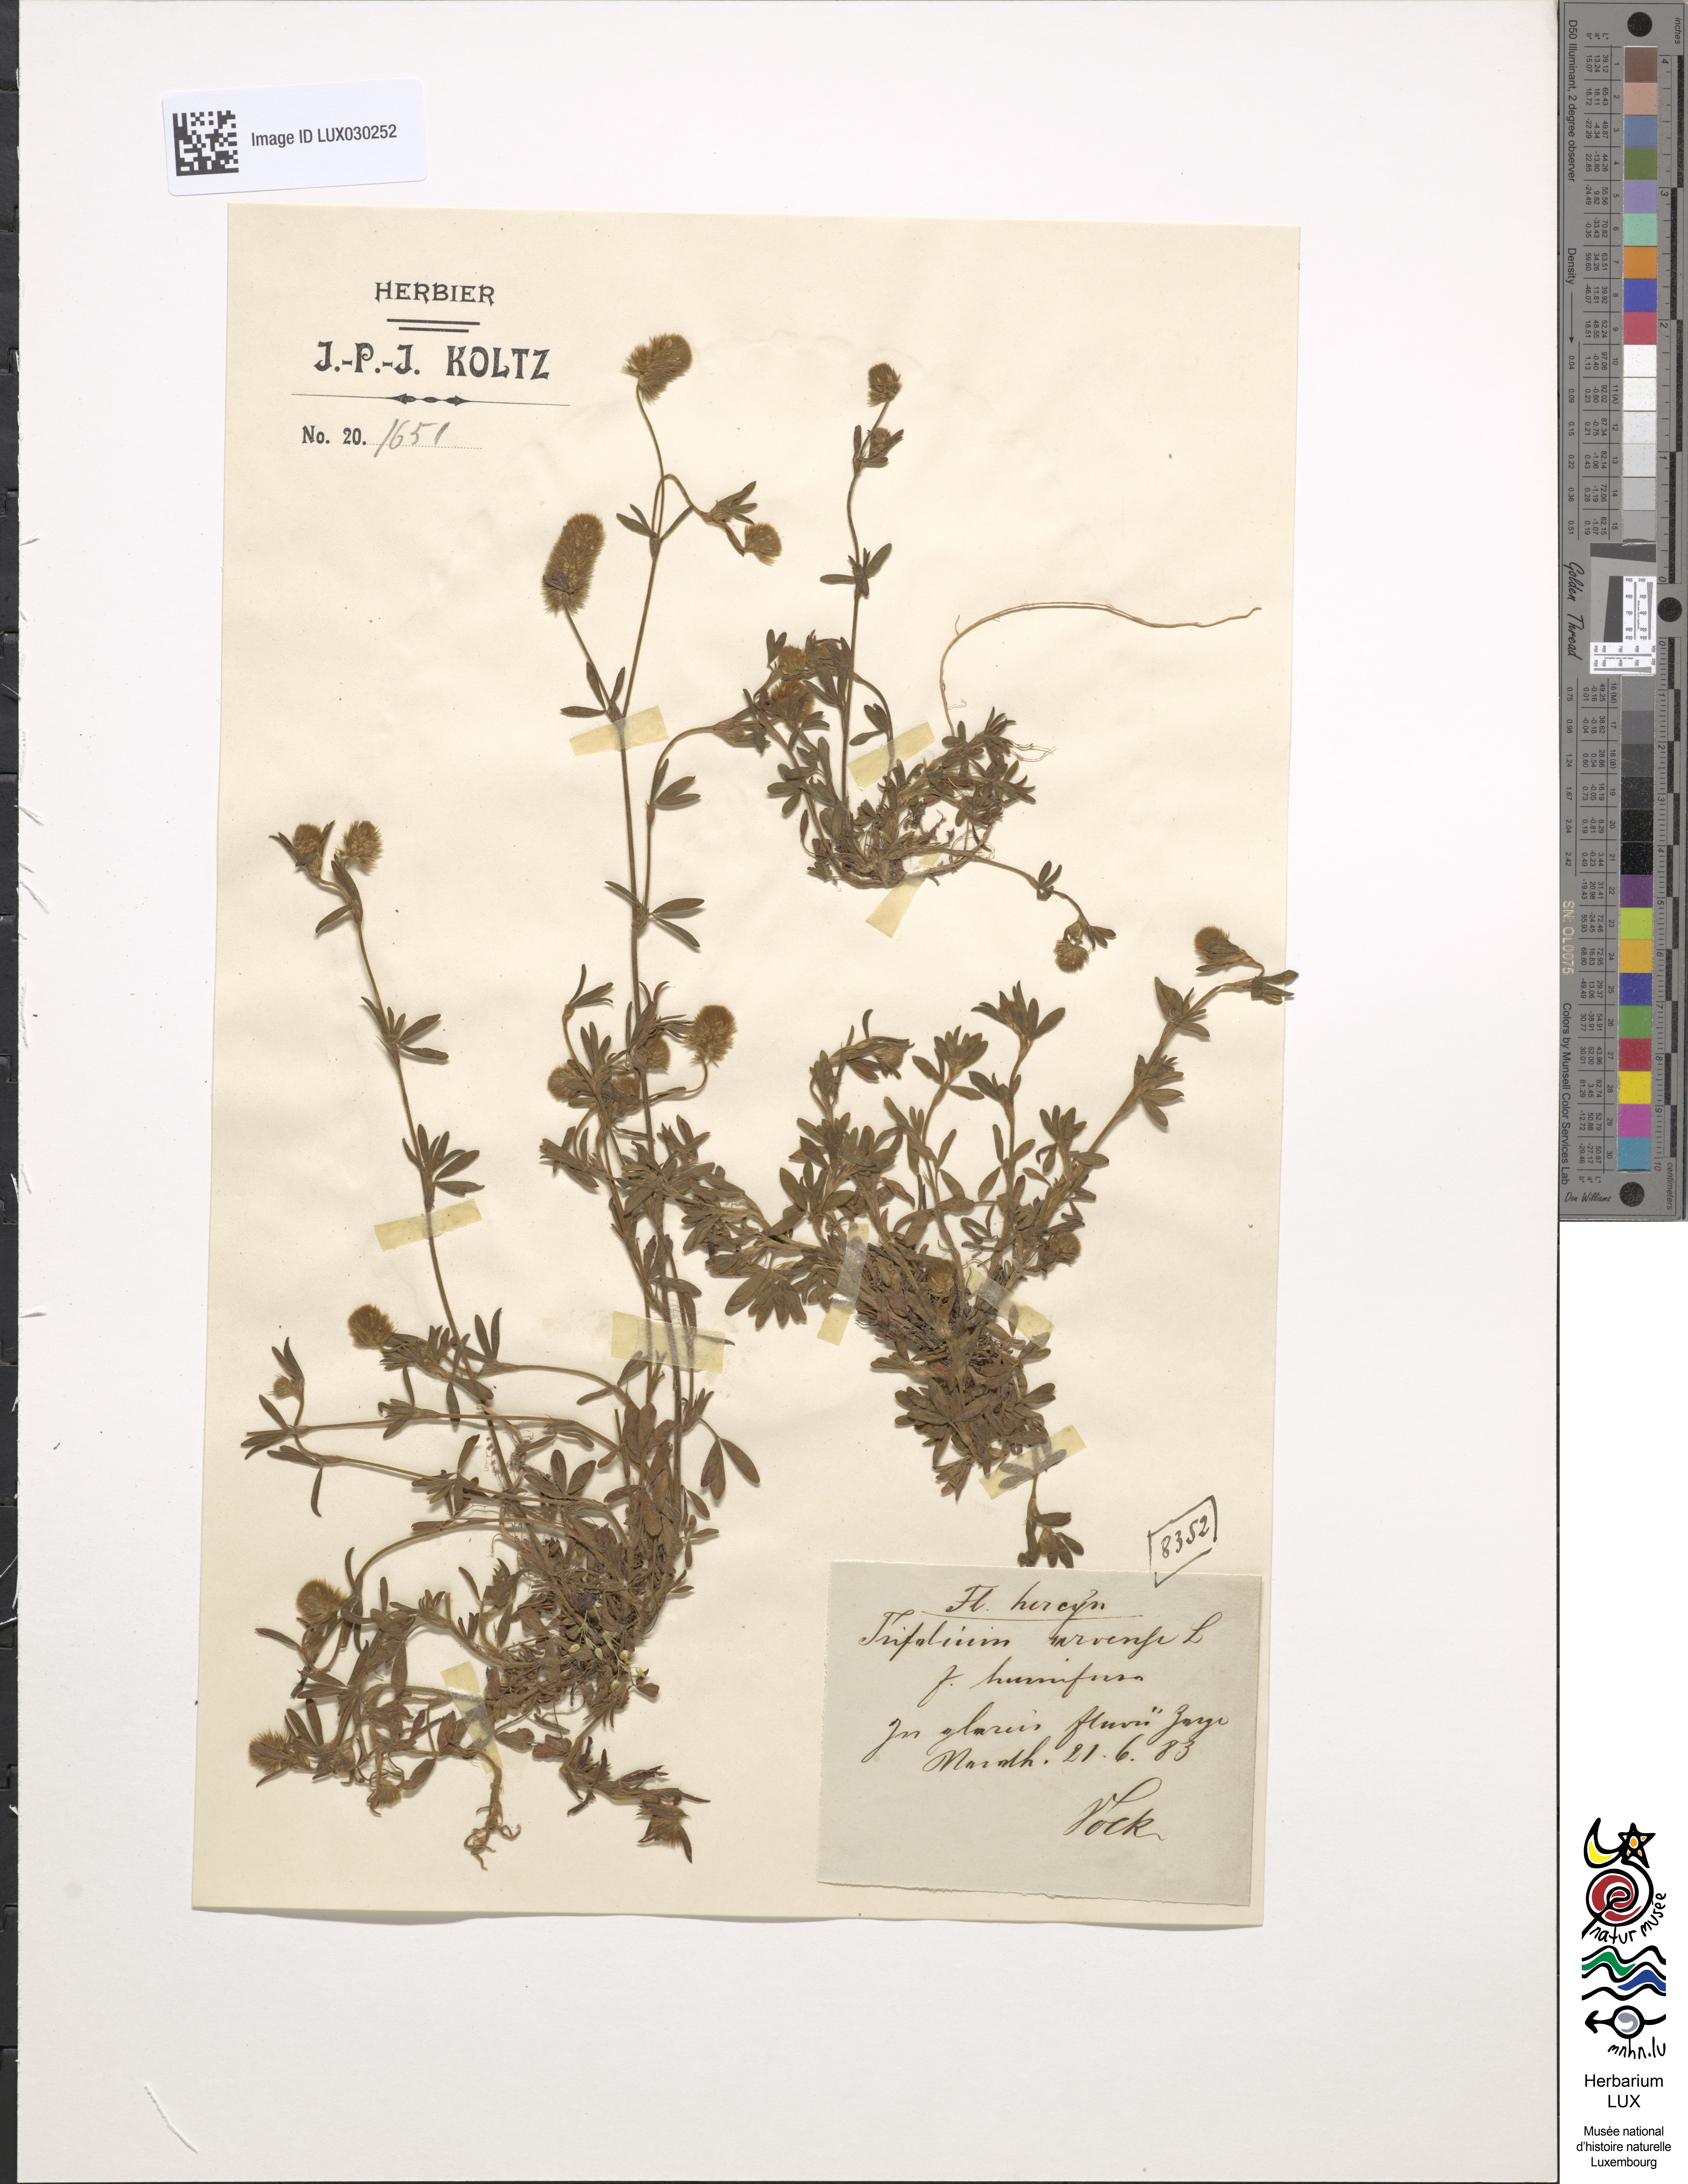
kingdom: Plantae
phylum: Tracheophyta
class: Magnoliopsida
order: Fabales
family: Fabaceae
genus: Trifolium
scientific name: Trifolium arvense
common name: Hare's-foot clover
